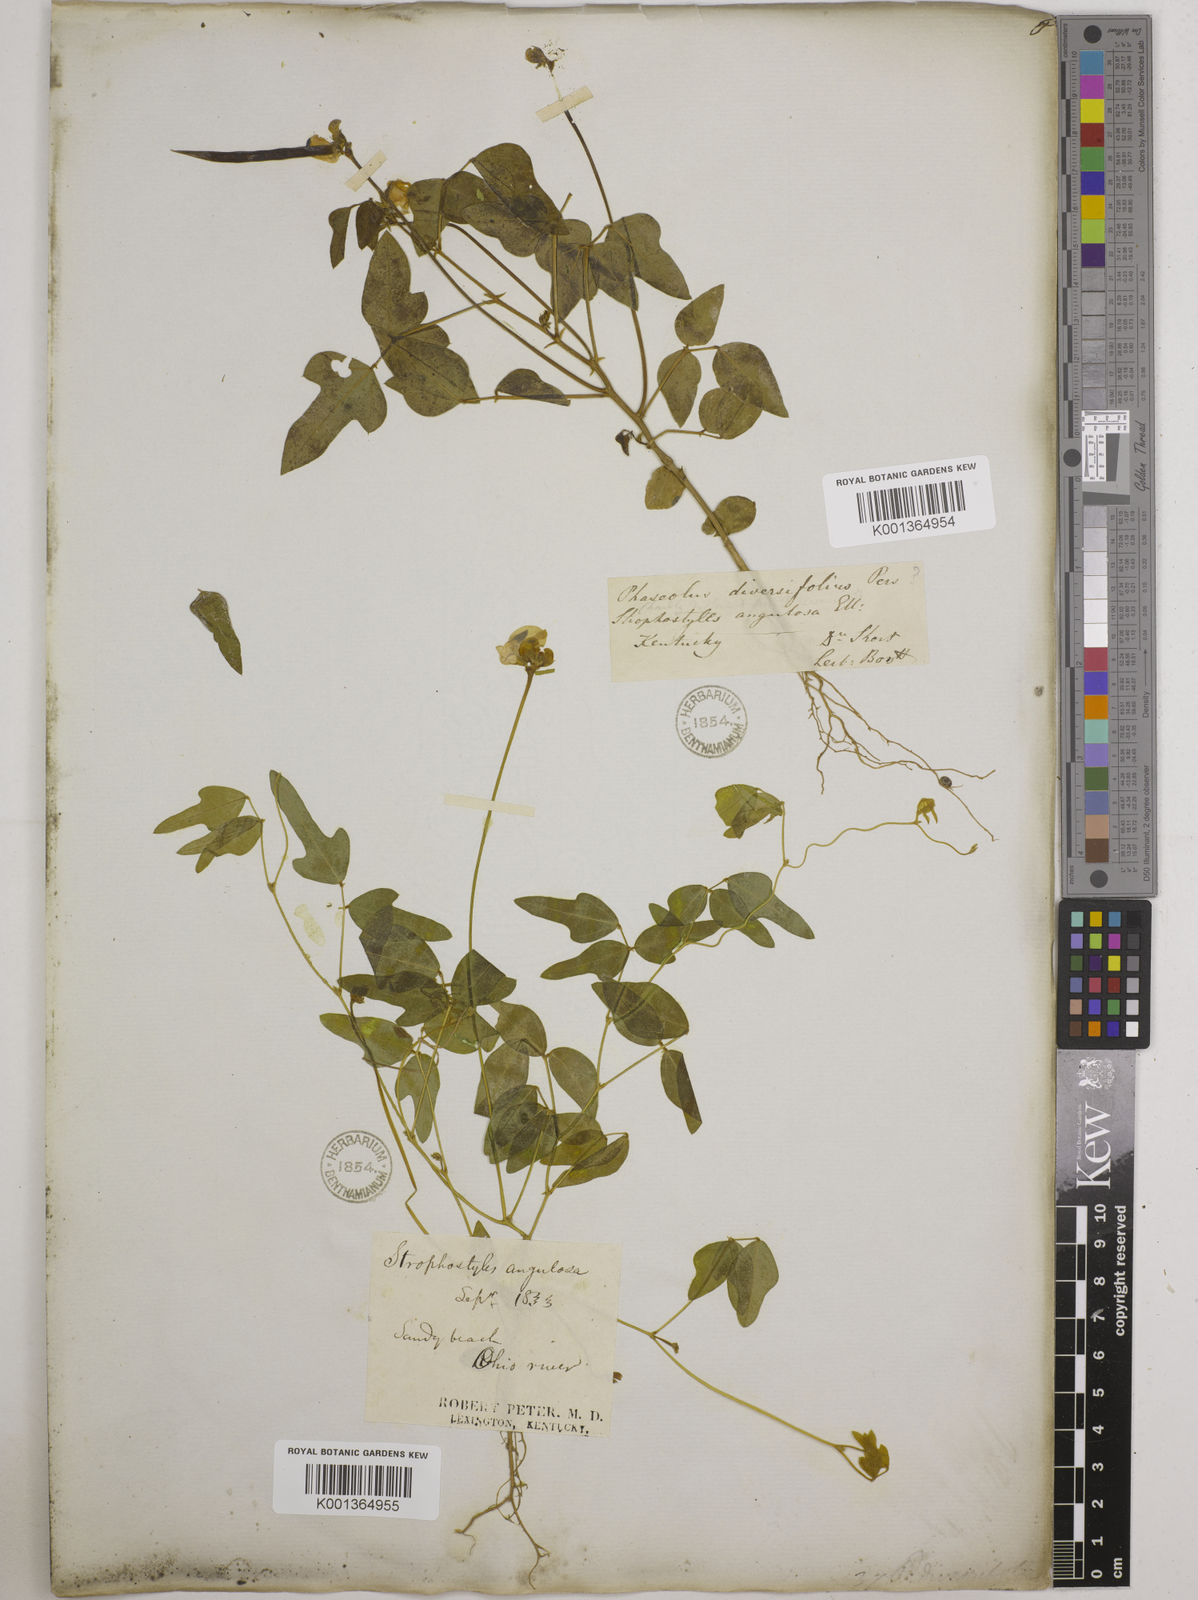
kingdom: Plantae
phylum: Tracheophyta
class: Magnoliopsida
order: Fabales
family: Fabaceae
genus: Strophostyles
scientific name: Strophostyles
